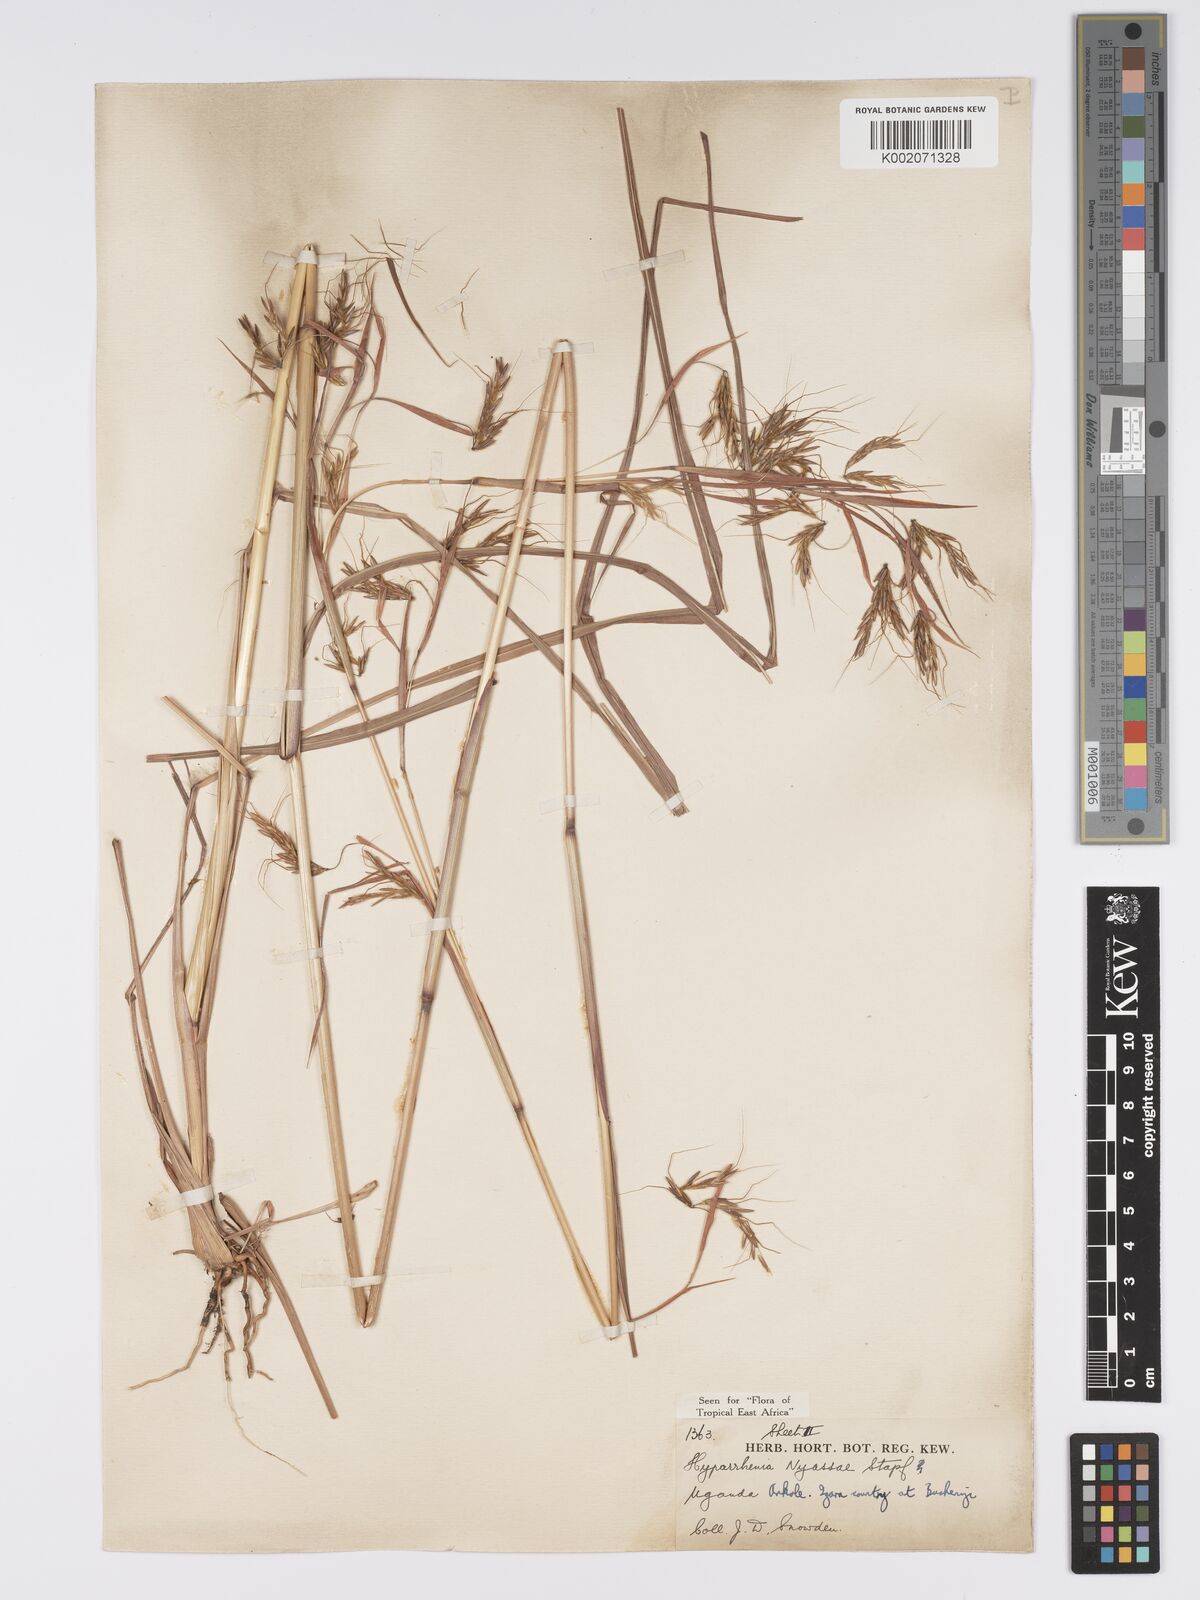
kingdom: Plantae
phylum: Tracheophyta
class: Liliopsida
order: Poales
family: Poaceae
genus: Hyparrhenia
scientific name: Hyparrhenia nyassae
